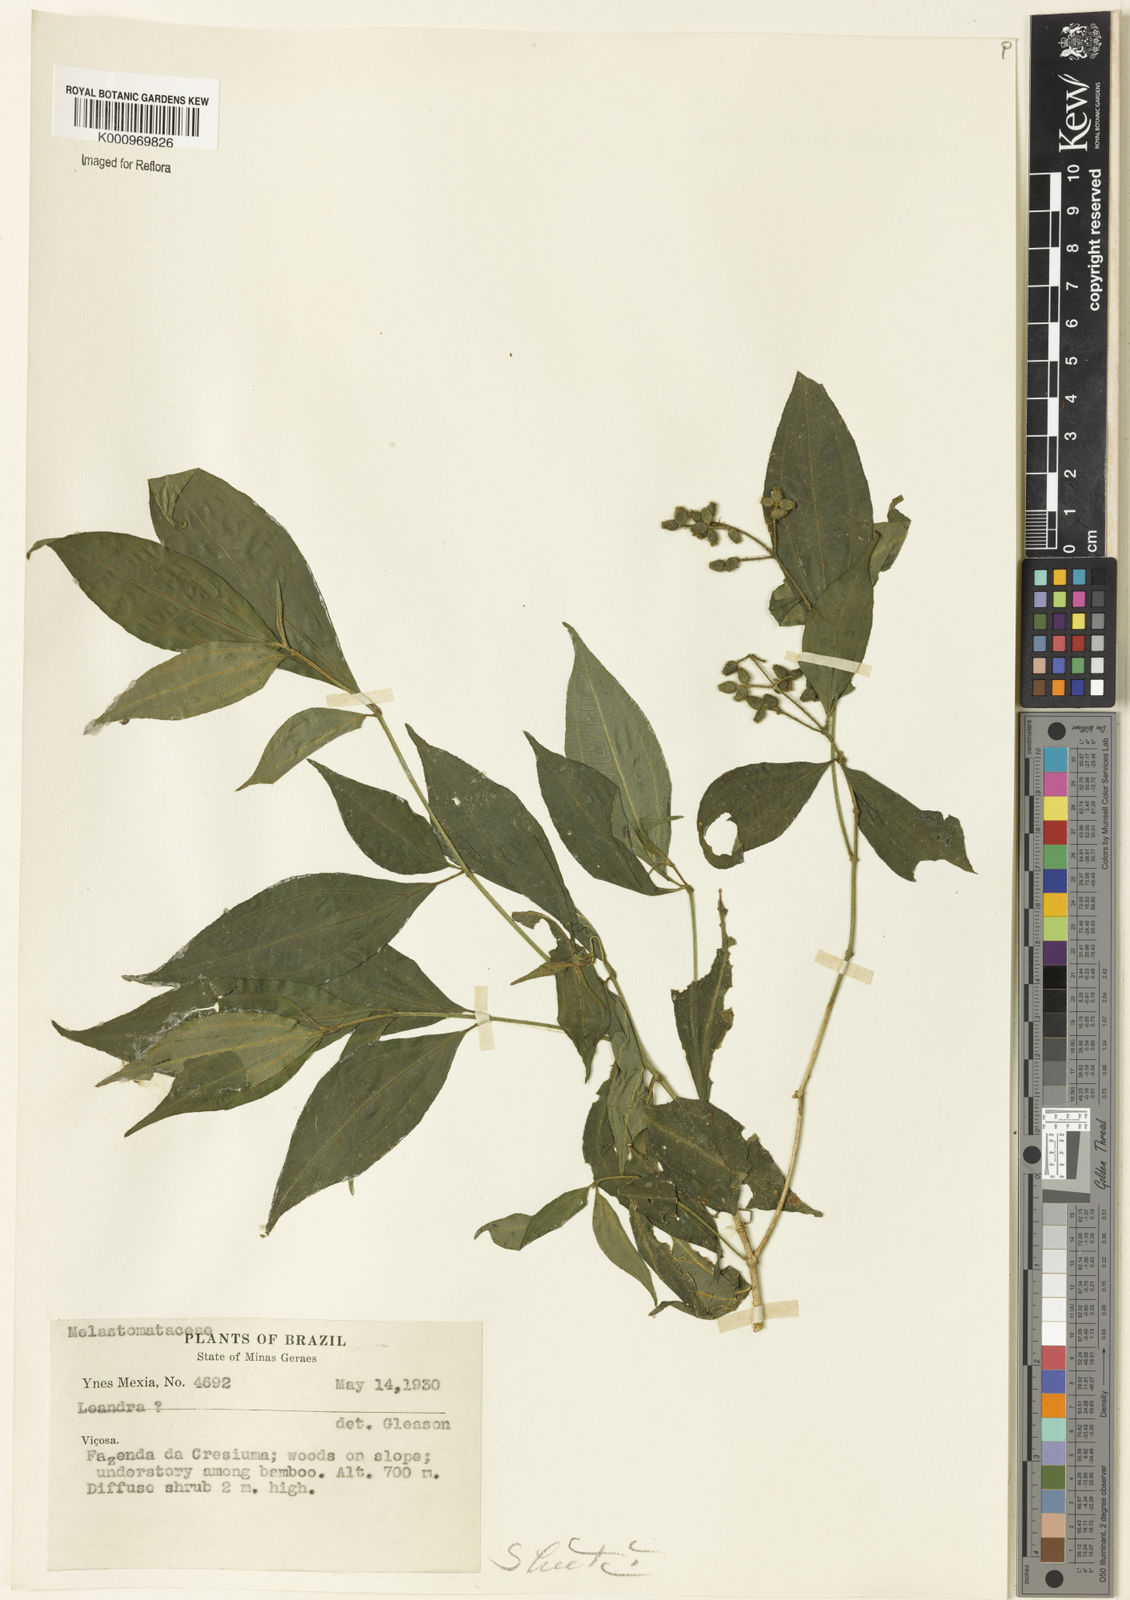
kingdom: Plantae
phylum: Tracheophyta
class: Magnoliopsida
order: Myrtales
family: Melastomataceae
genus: Miconia
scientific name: Miconia
